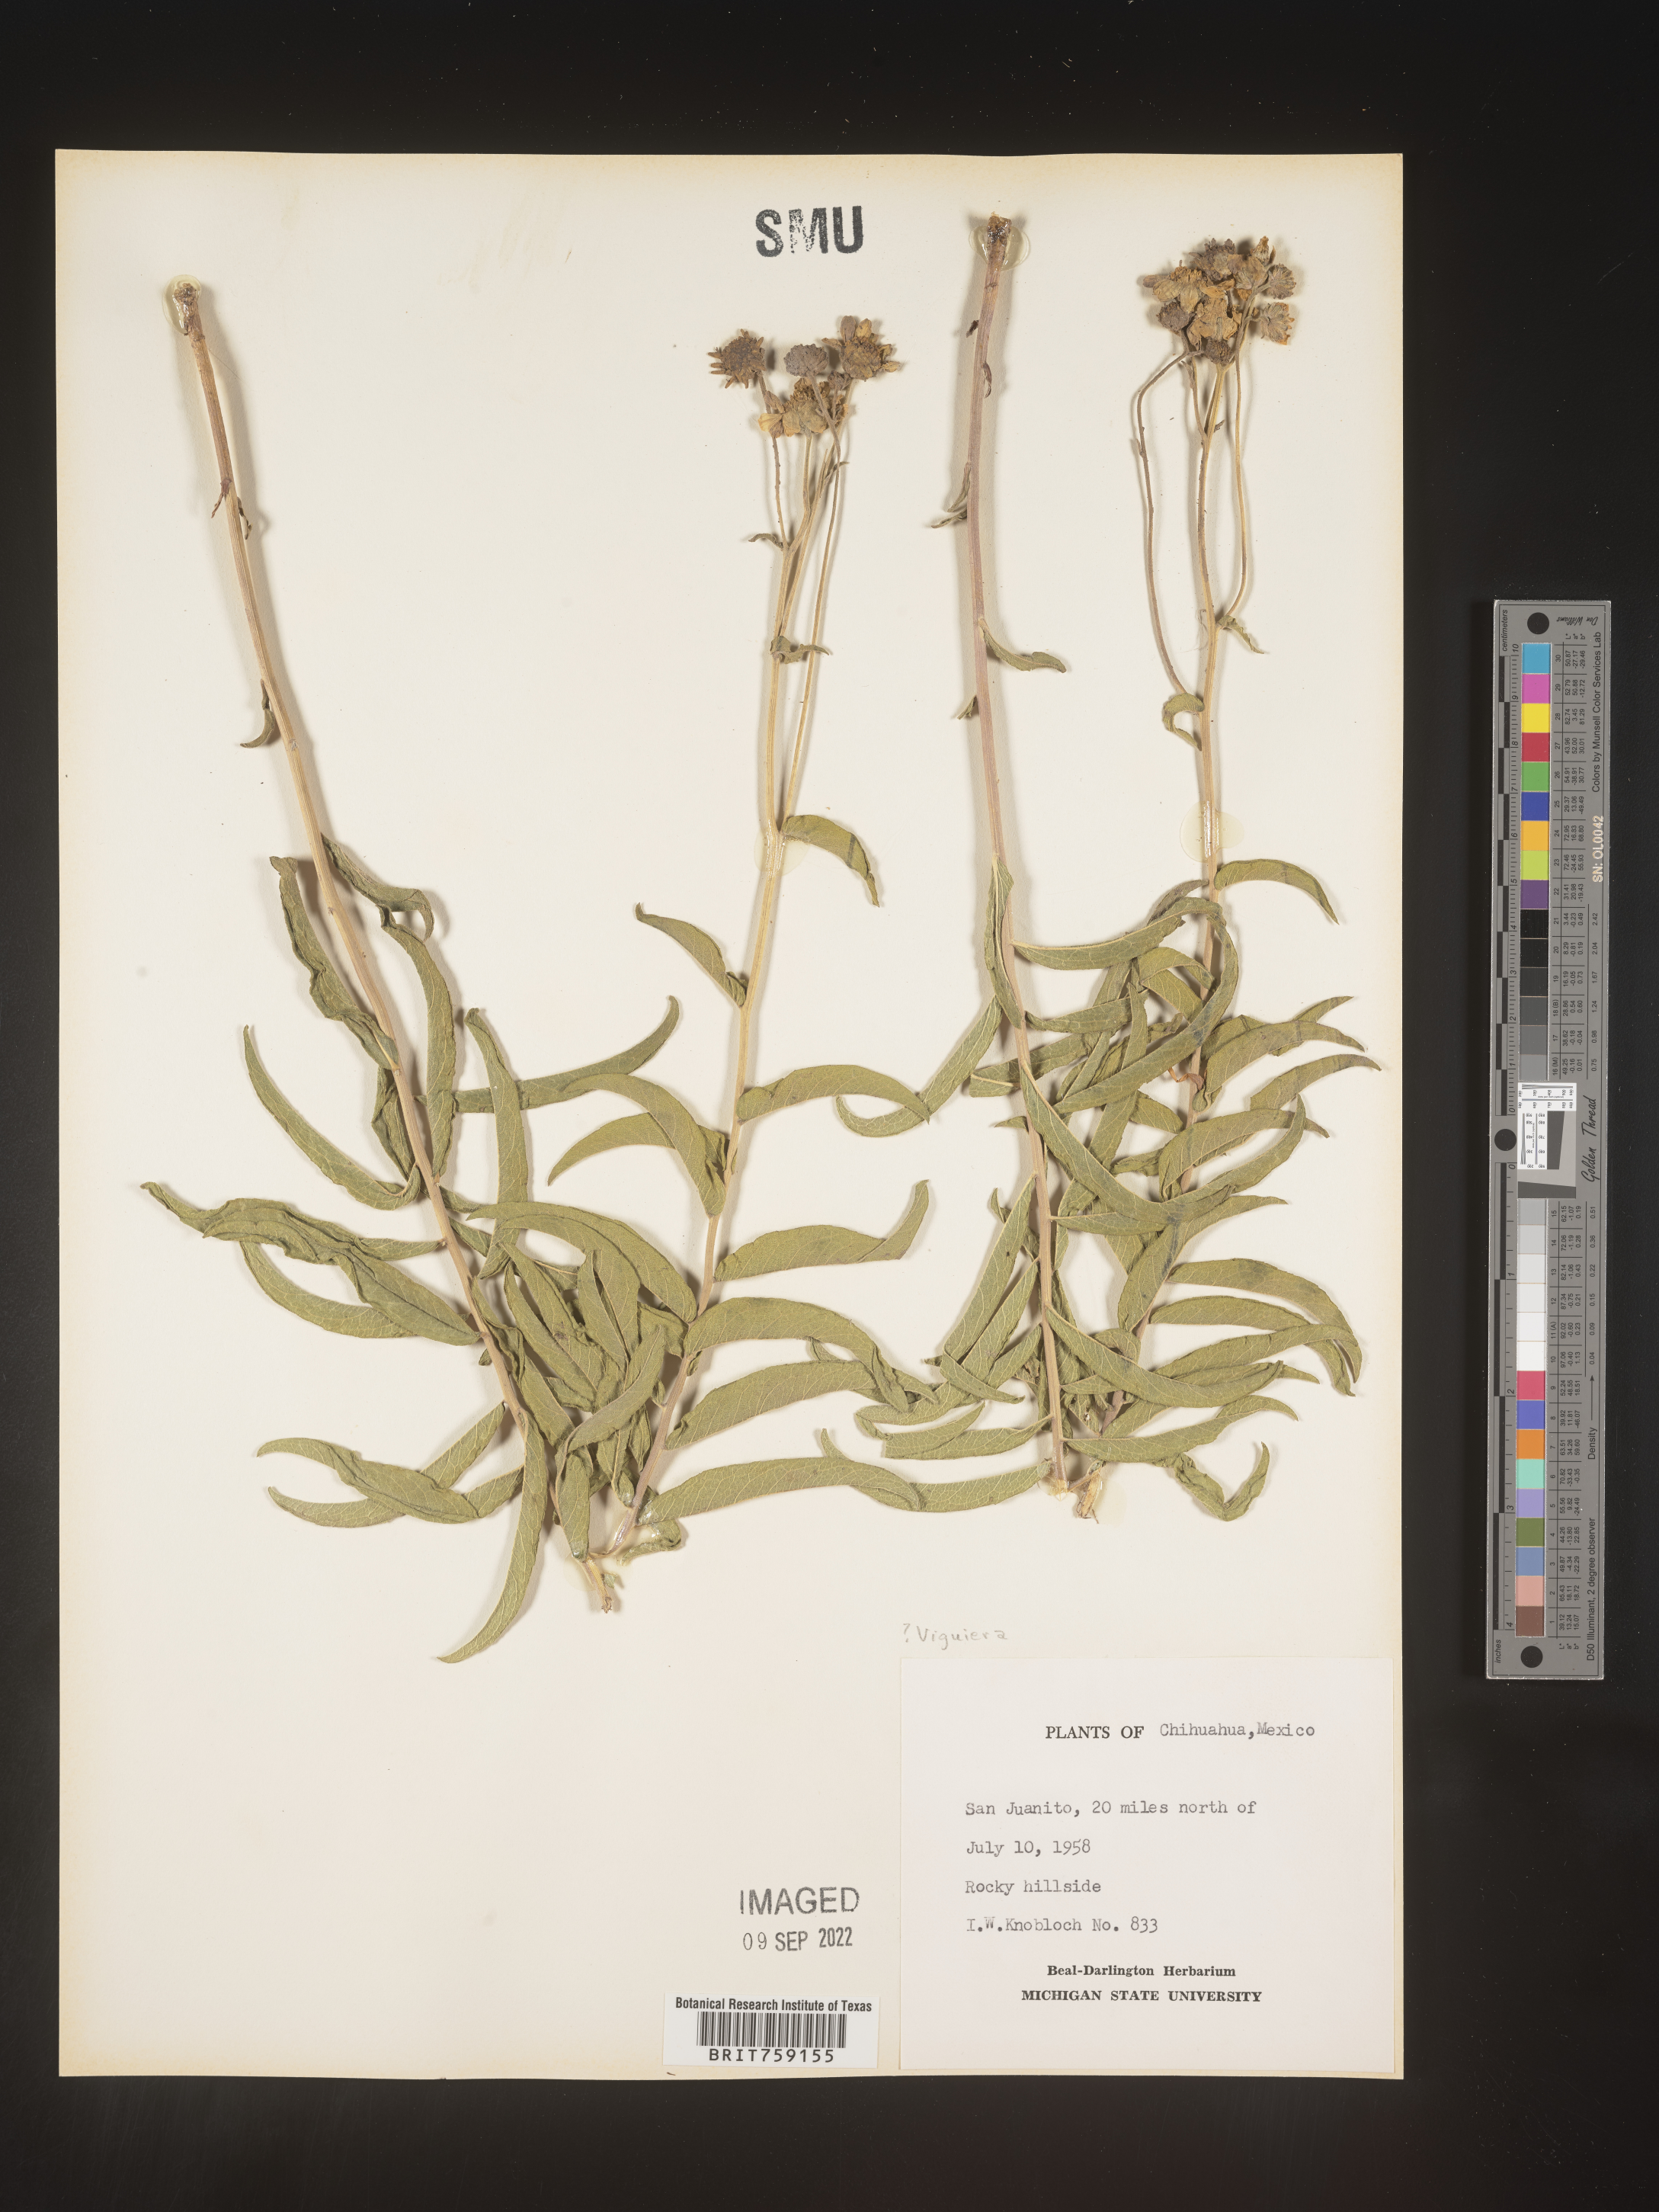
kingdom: Plantae
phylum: Tracheophyta
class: Magnoliopsida
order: Asterales
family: Asteraceae
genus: Viguiera
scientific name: Viguiera
